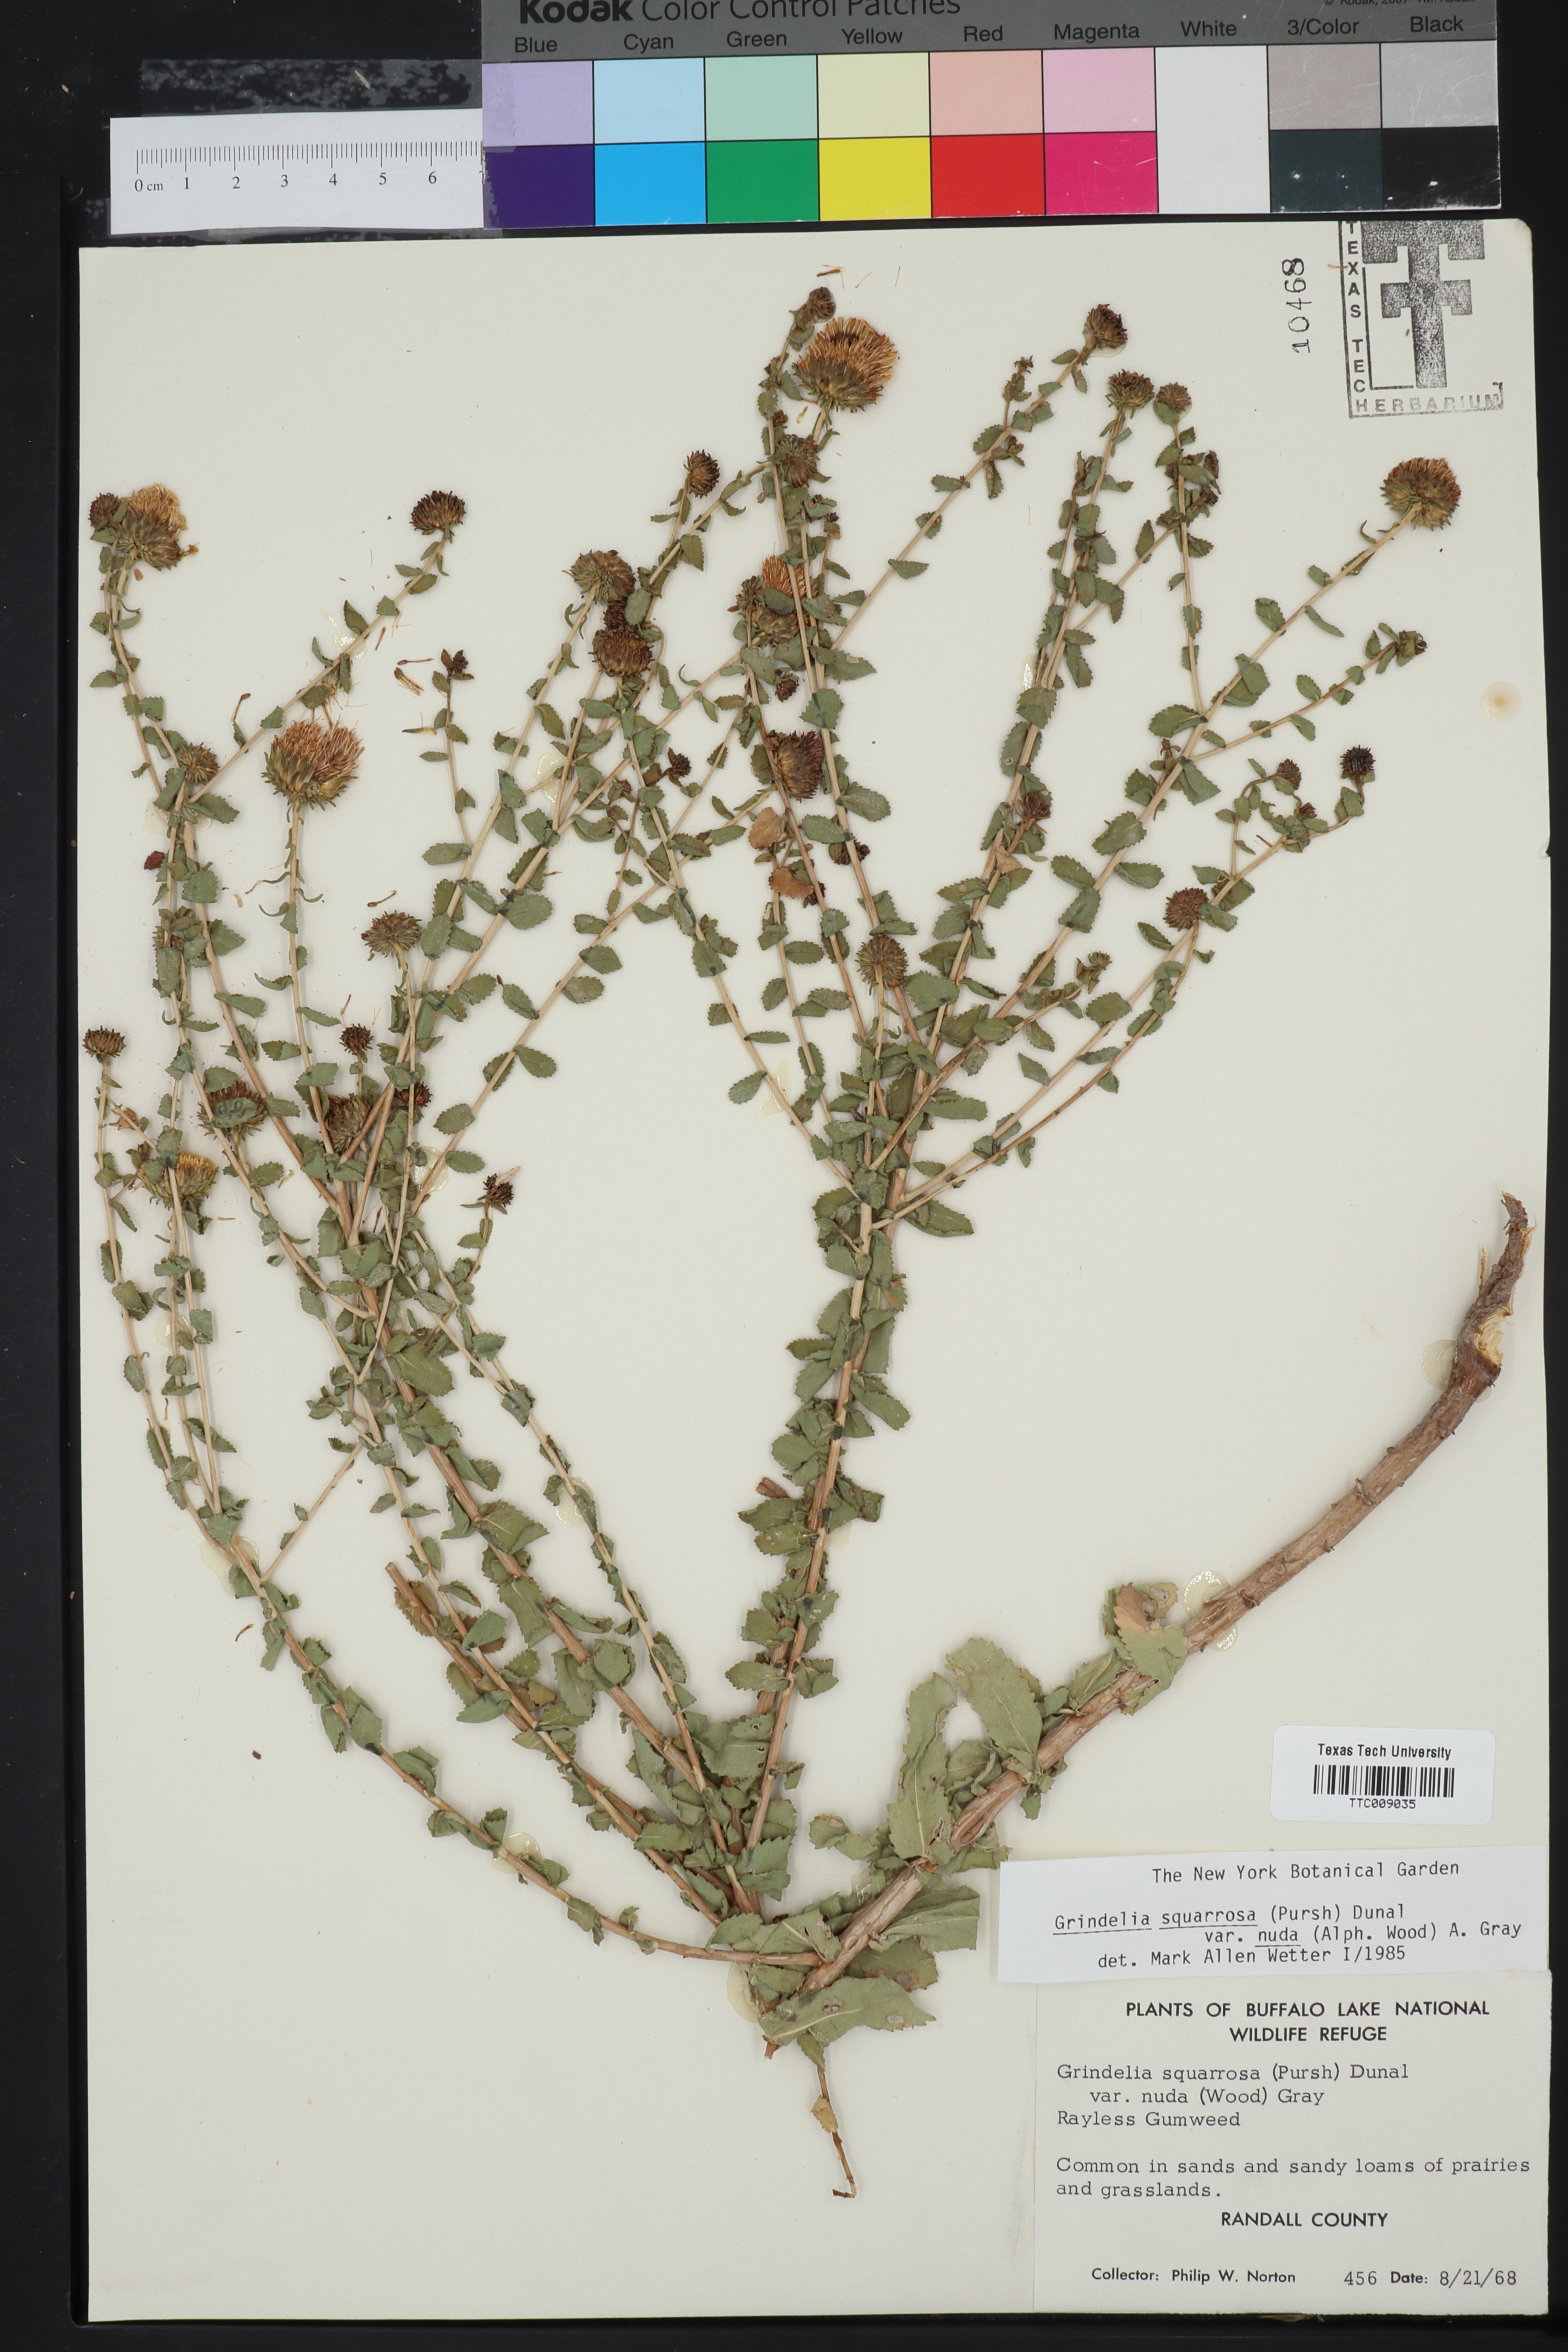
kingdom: Plantae
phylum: Tracheophyta
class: Magnoliopsida
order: Asterales
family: Asteraceae
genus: Grindelia
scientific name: Grindelia nuda
